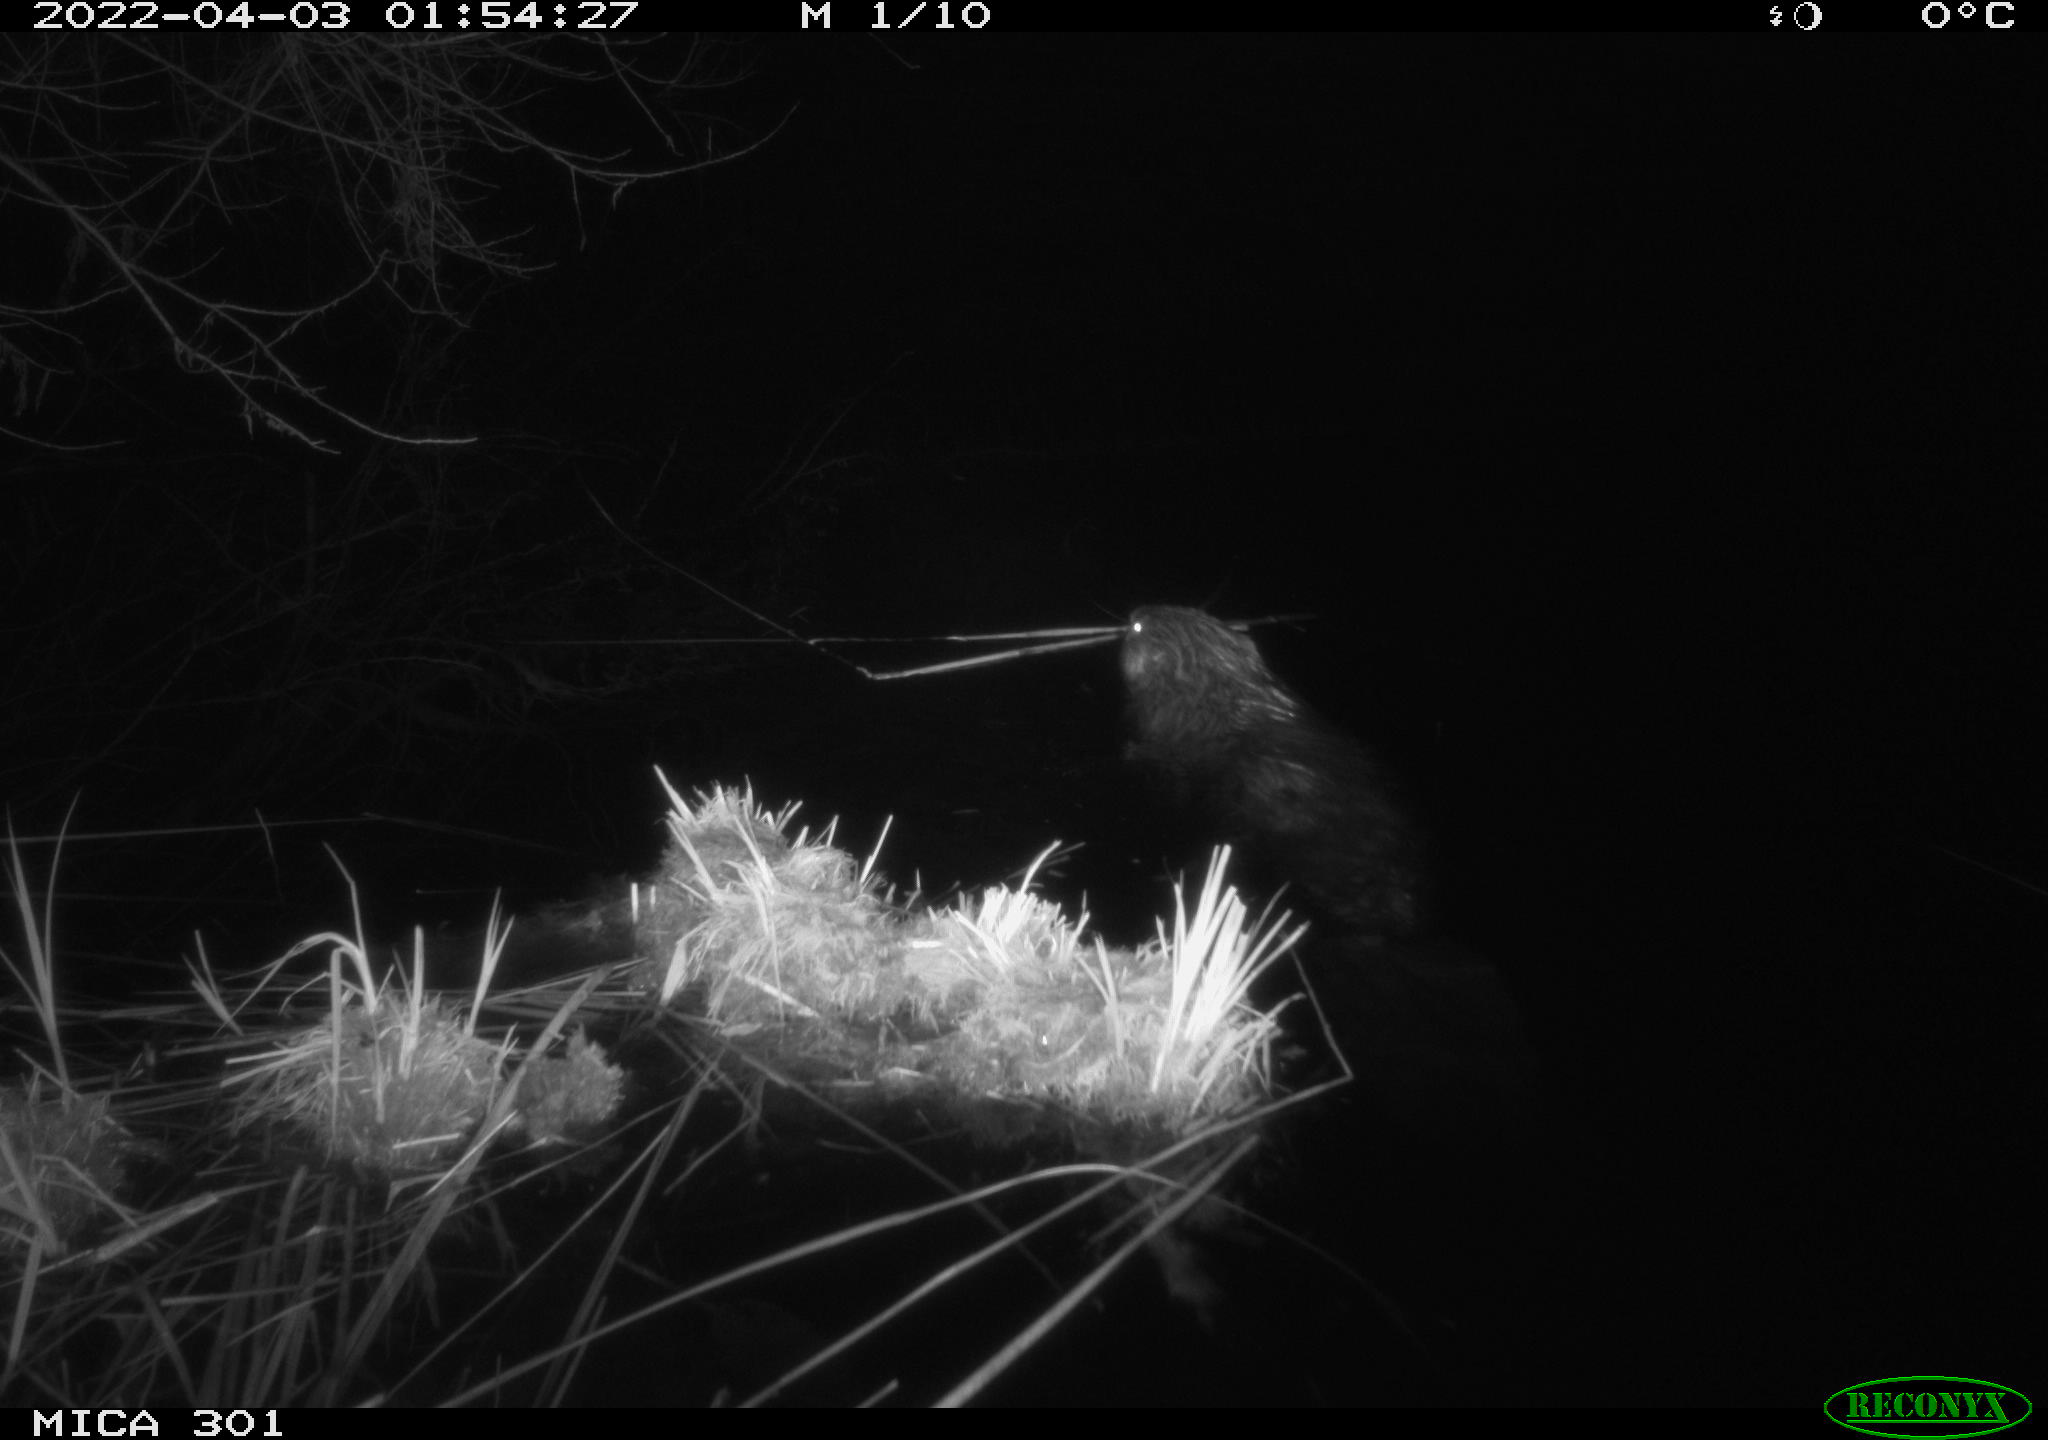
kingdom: Animalia
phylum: Chordata
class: Mammalia
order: Rodentia
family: Castoridae
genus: Castor
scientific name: Castor fiber
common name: Eurasian beaver
